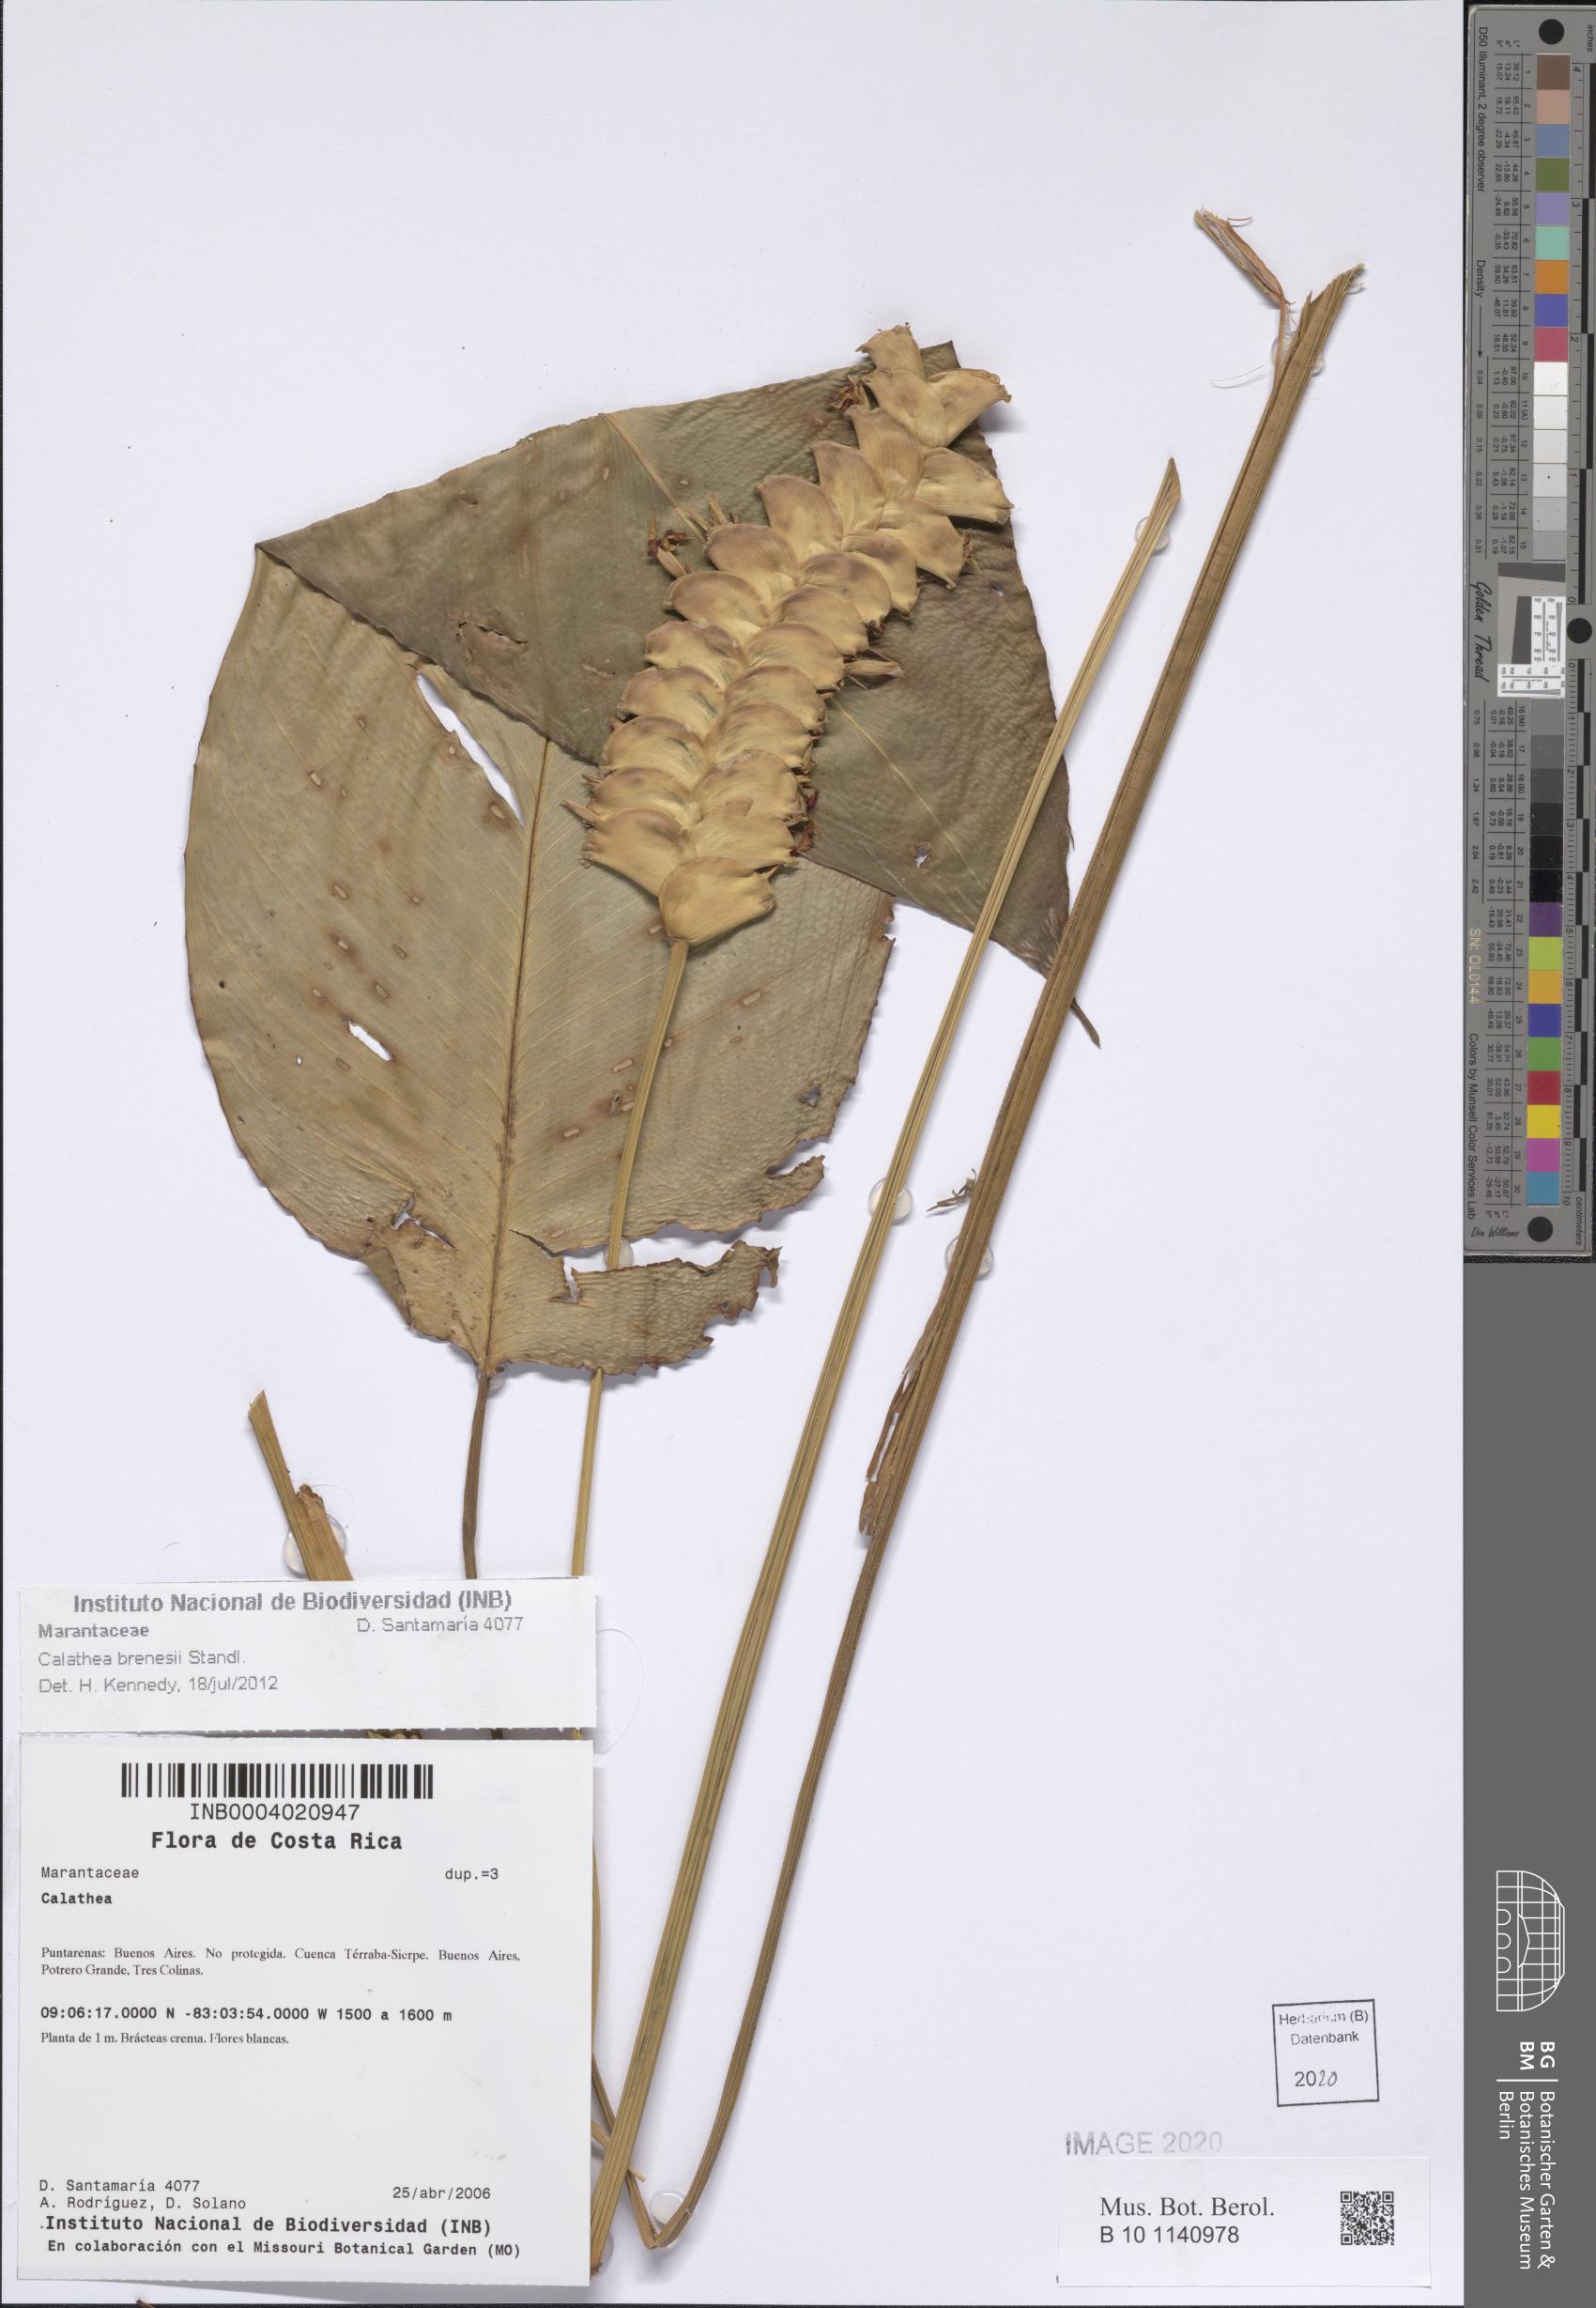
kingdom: Plantae
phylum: Tracheophyta
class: Liliopsida
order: Zingiberales
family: Marantaceae
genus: Calathea
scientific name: Calathea brenesii
